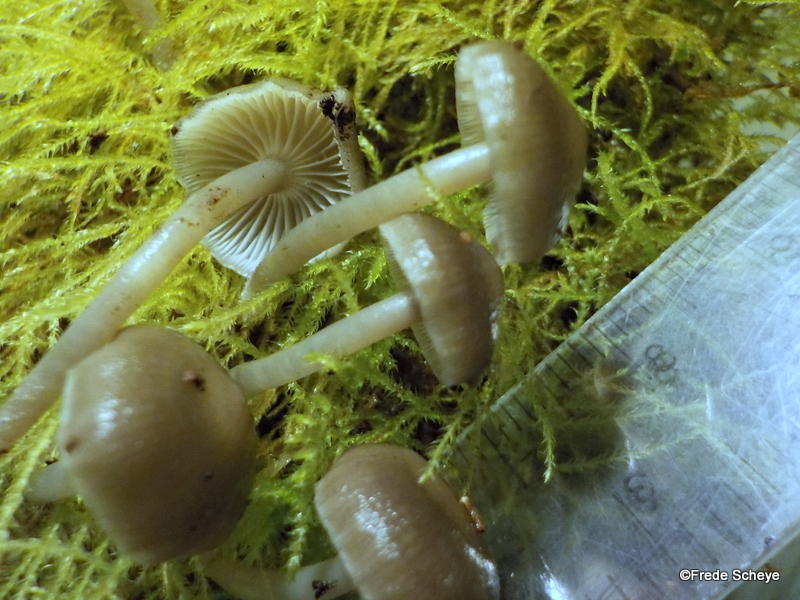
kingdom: Fungi
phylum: Basidiomycota
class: Agaricomycetes
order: Agaricales
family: Mycenaceae
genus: Mycena
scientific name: Mycena tintinnabulum
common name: vinter-huesvamp
